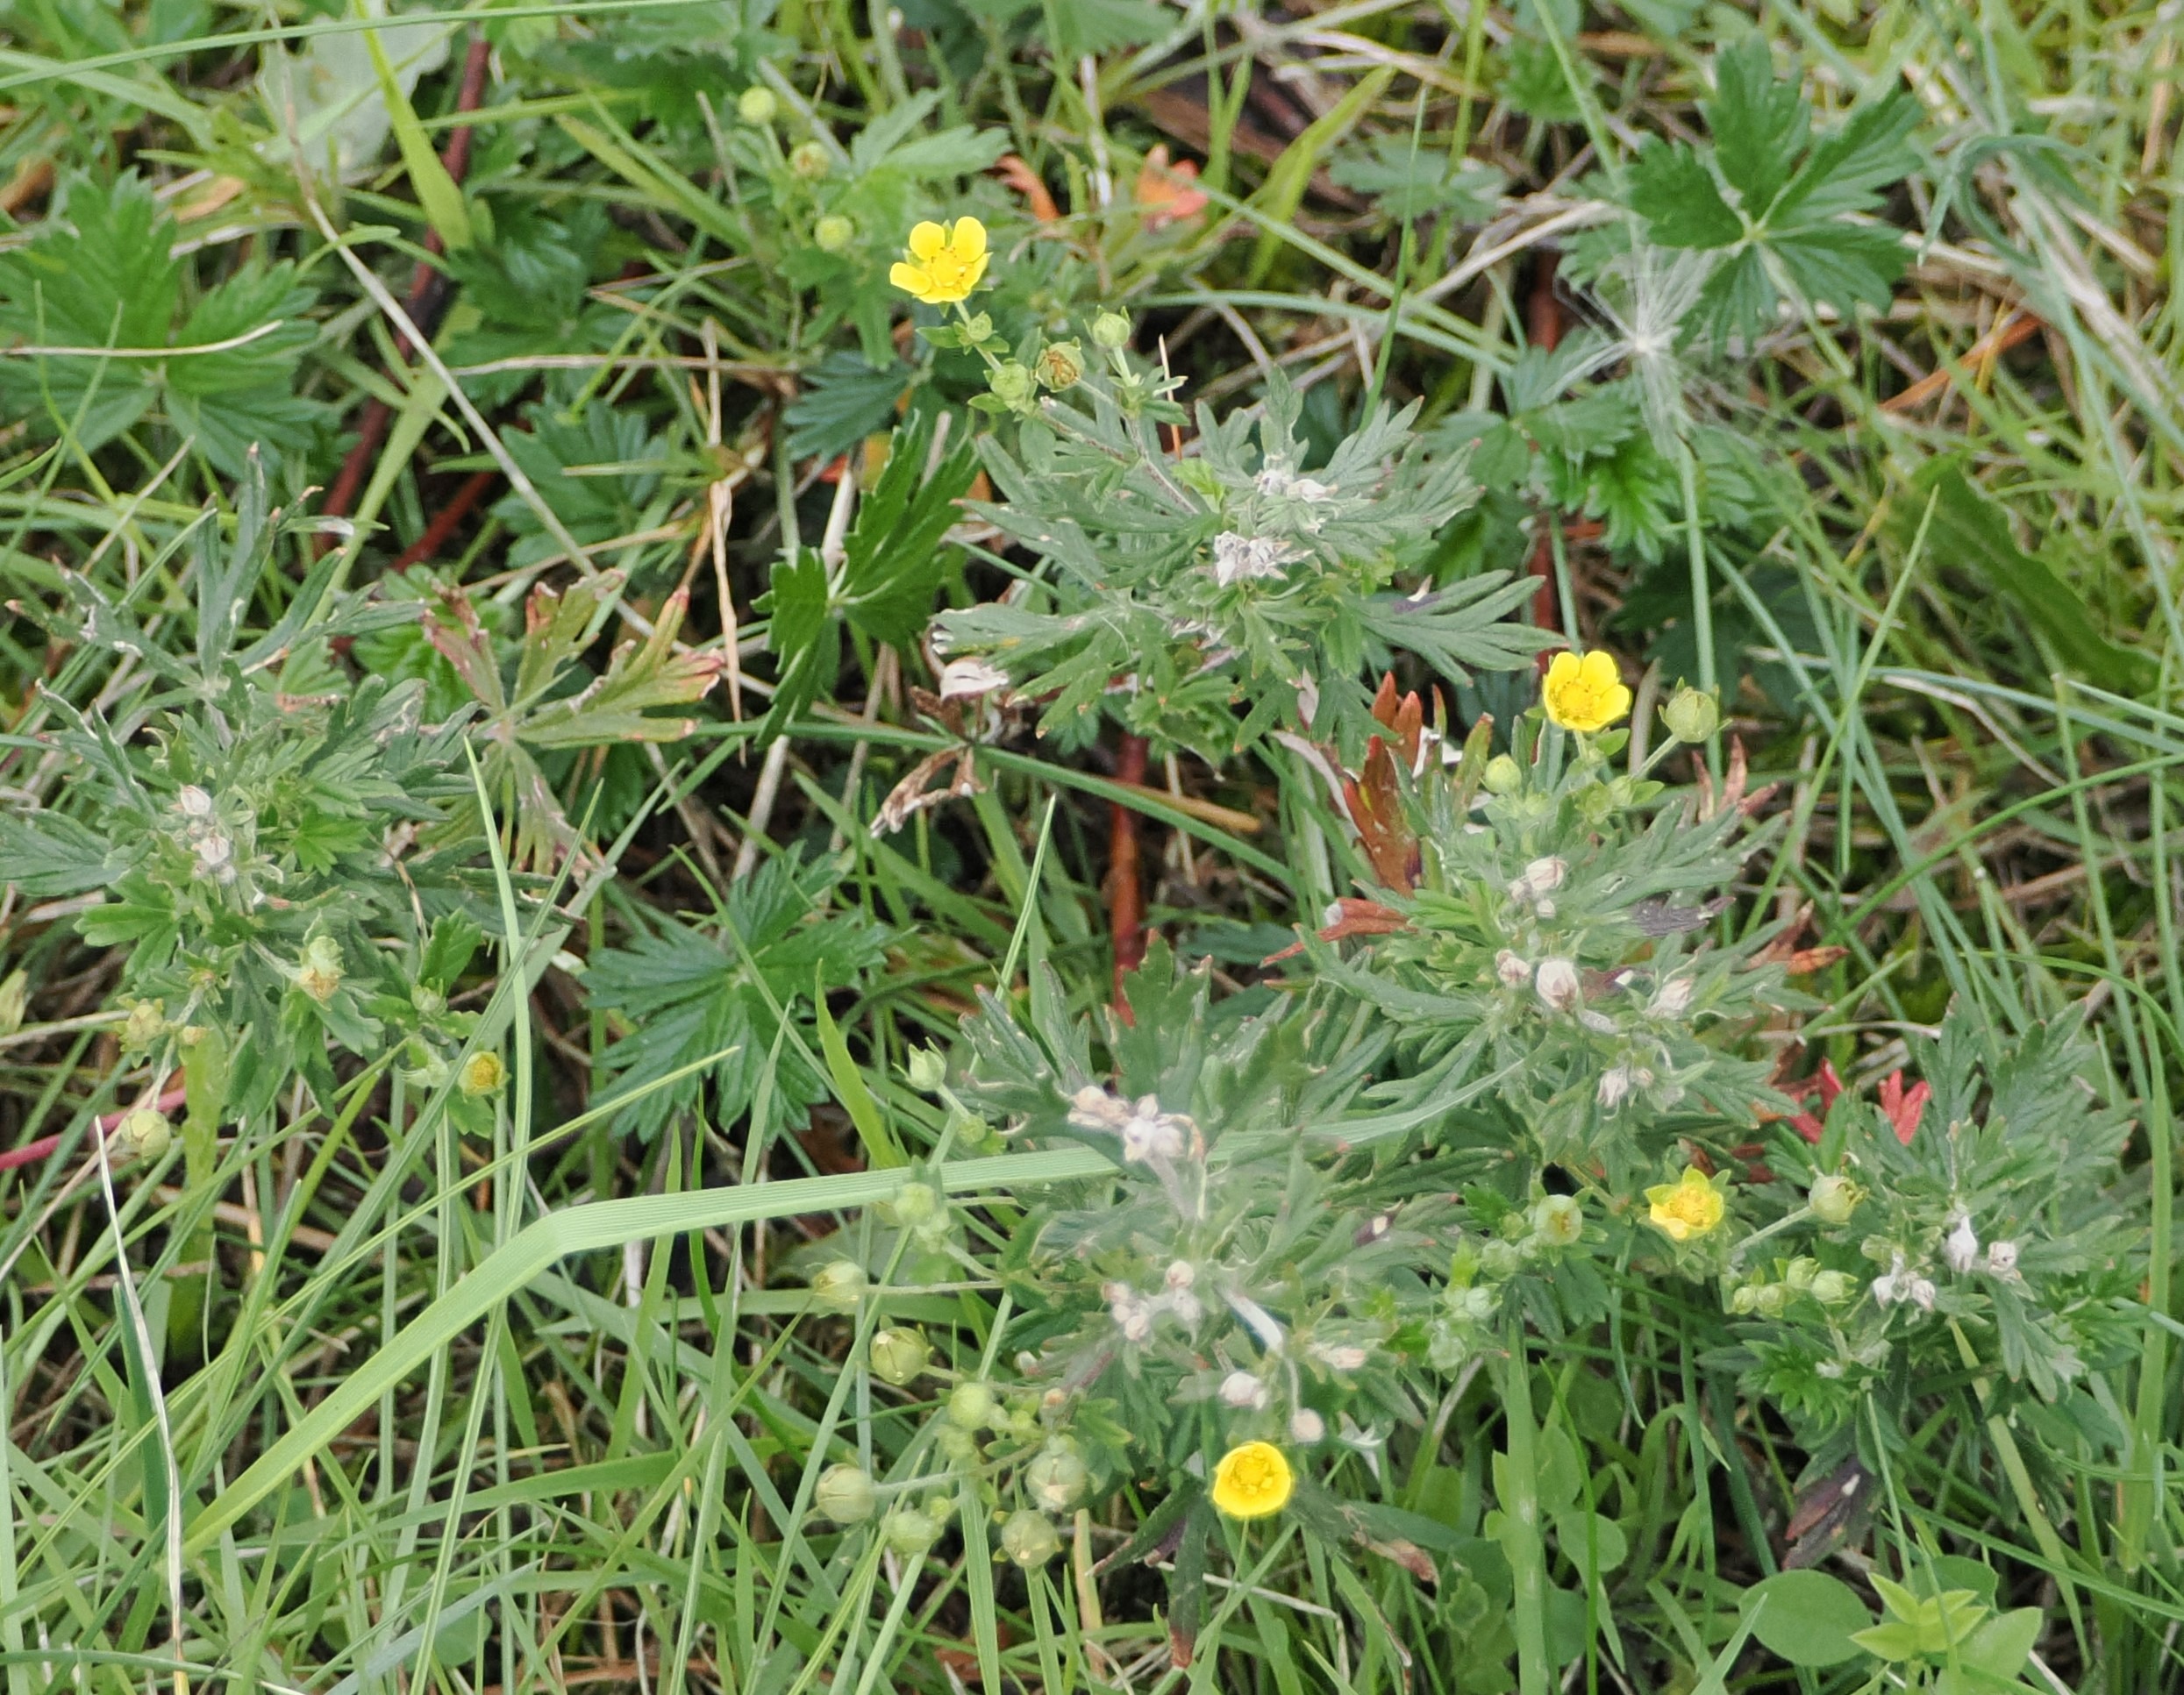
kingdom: Plantae
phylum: Tracheophyta
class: Magnoliopsida
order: Rosales
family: Rosaceae
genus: Potentilla
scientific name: Potentilla argentea
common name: Sølv-potentil
